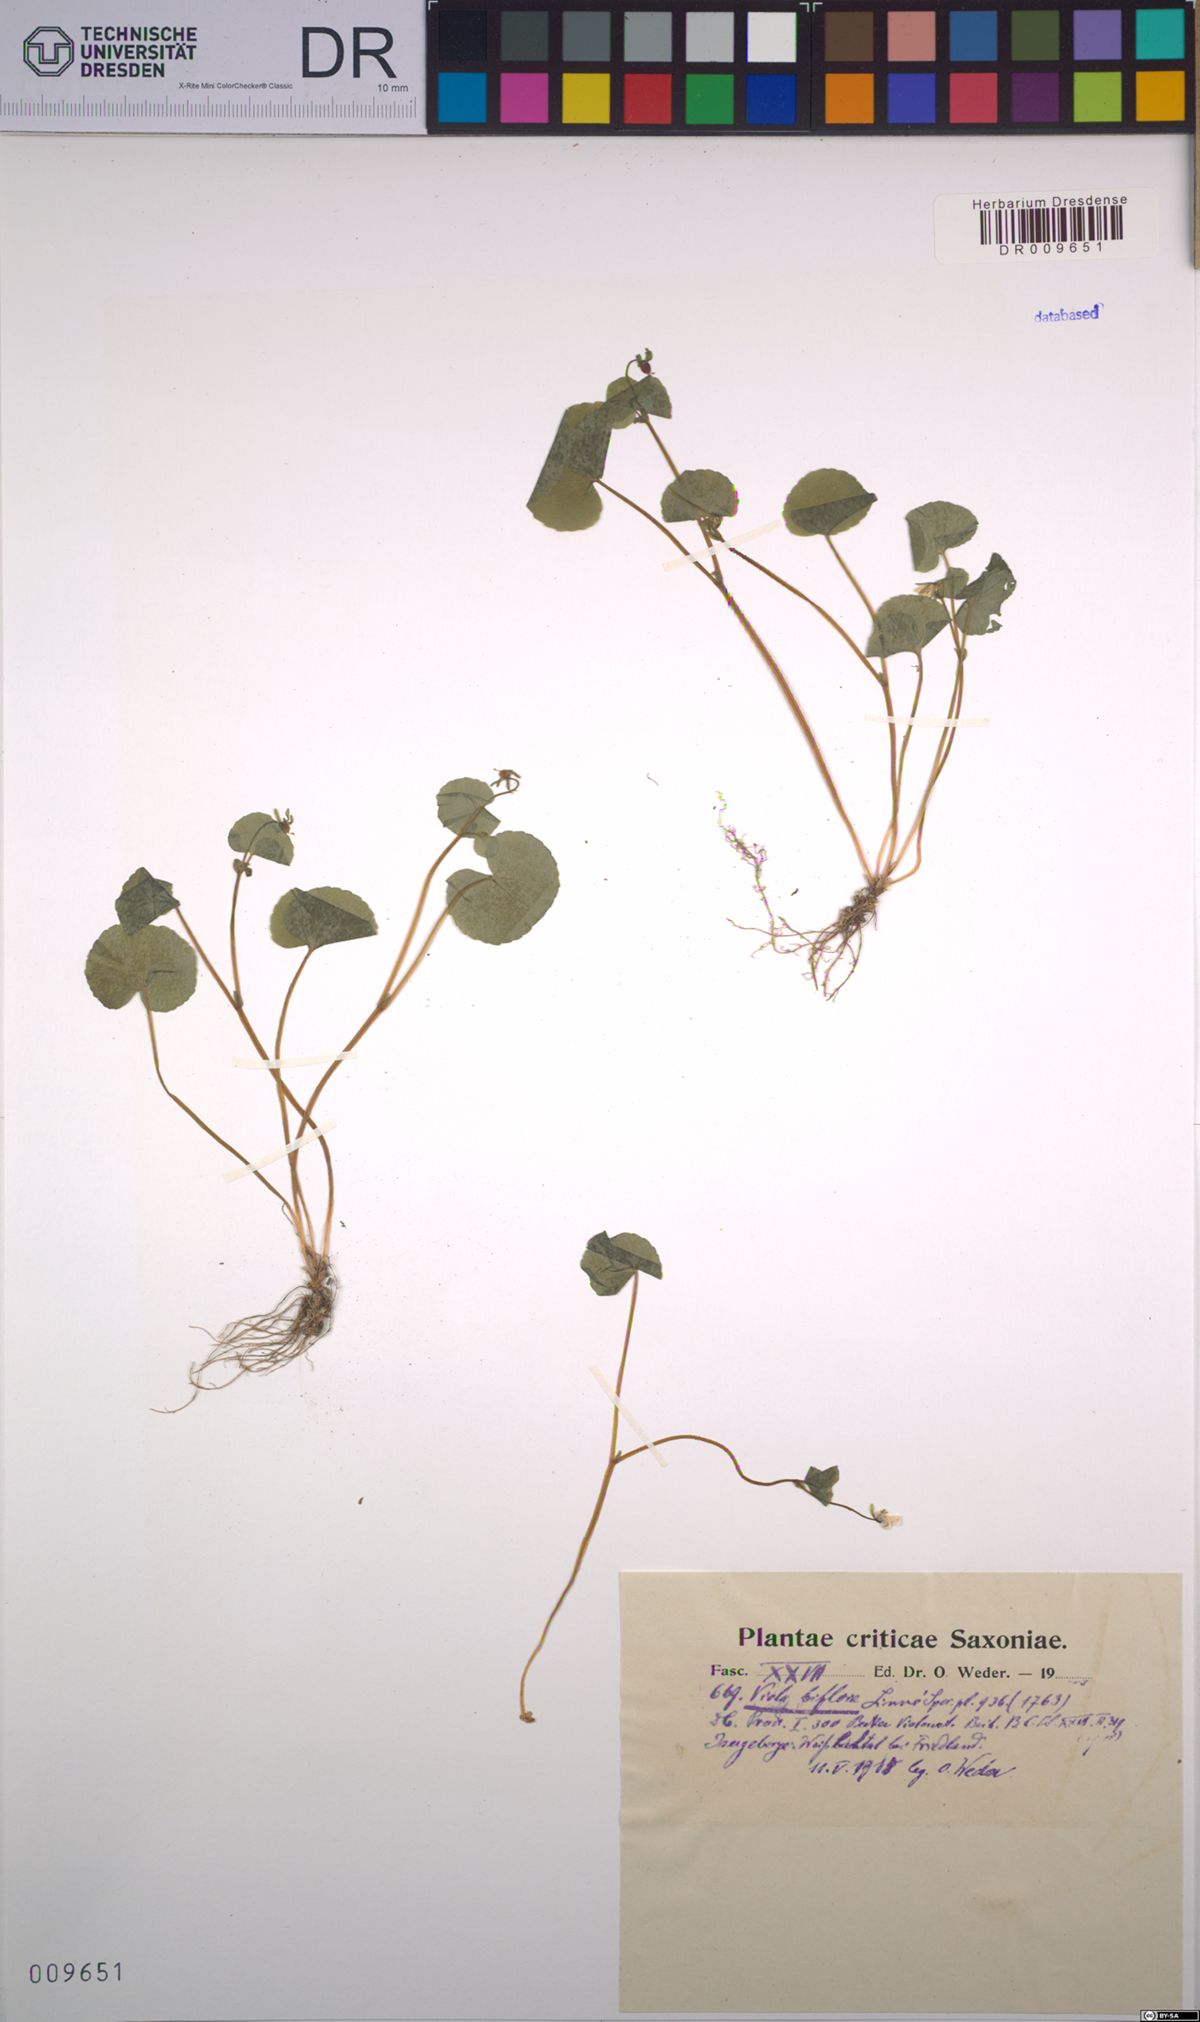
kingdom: Plantae
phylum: Tracheophyta
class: Magnoliopsida
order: Malpighiales
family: Violaceae
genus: Viola
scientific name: Viola biflora
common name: Alpine yellow violet
